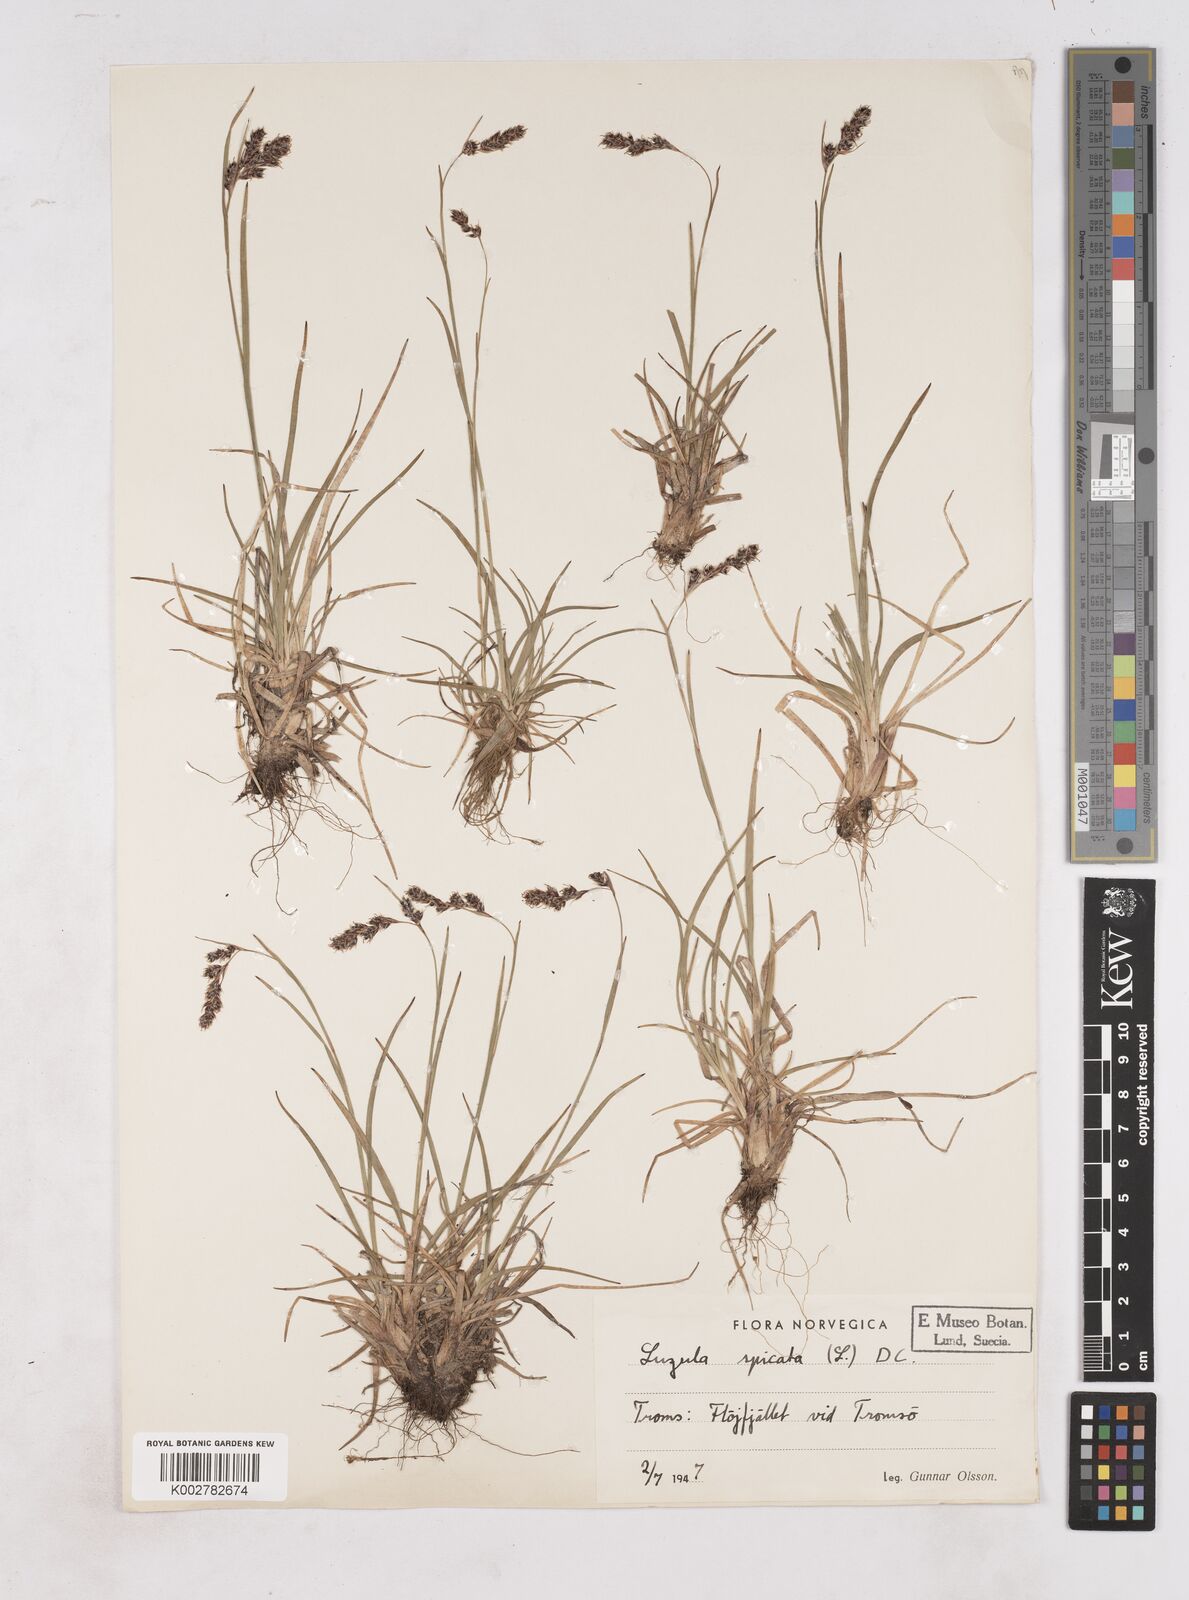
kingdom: Plantae
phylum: Tracheophyta
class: Liliopsida
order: Poales
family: Juncaceae
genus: Luzula
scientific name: Luzula spicata
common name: Spiked wood-rush
